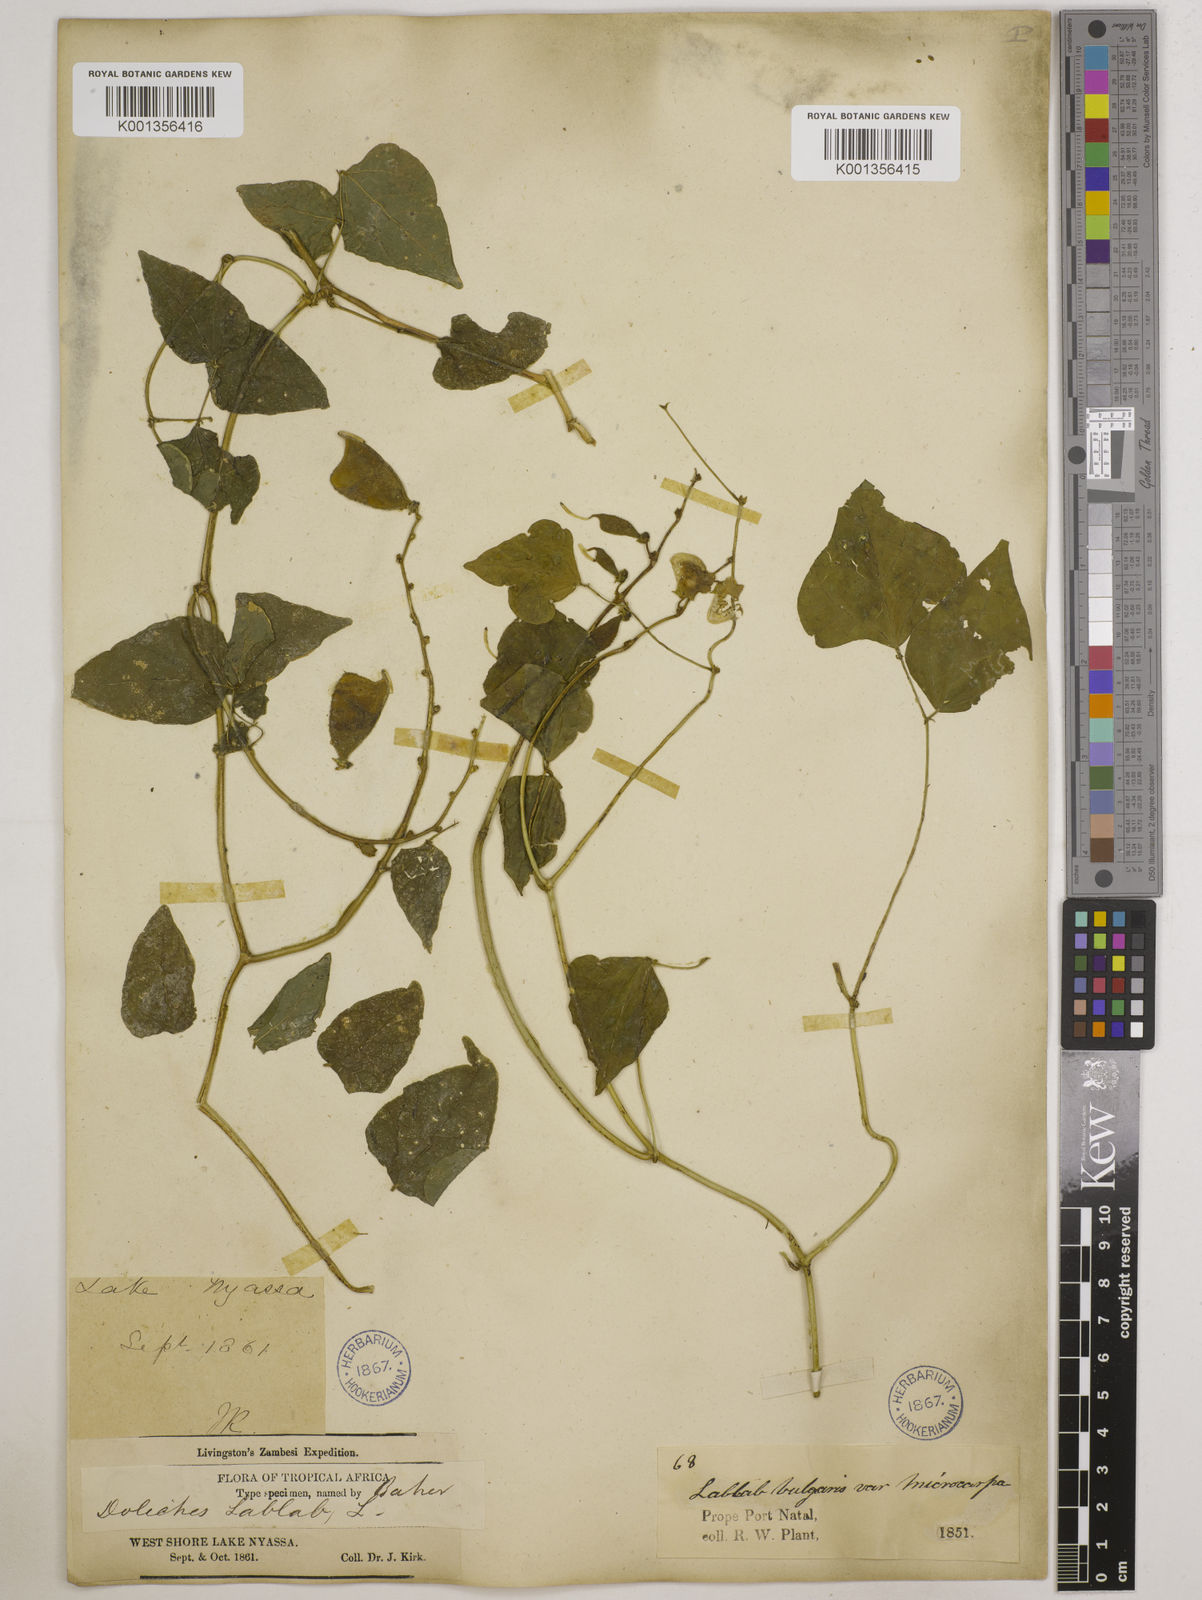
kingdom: Plantae
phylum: Tracheophyta
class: Magnoliopsida
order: Fabales
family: Fabaceae
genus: Lablab
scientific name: Lablab purpureus
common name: Lablab-bean
